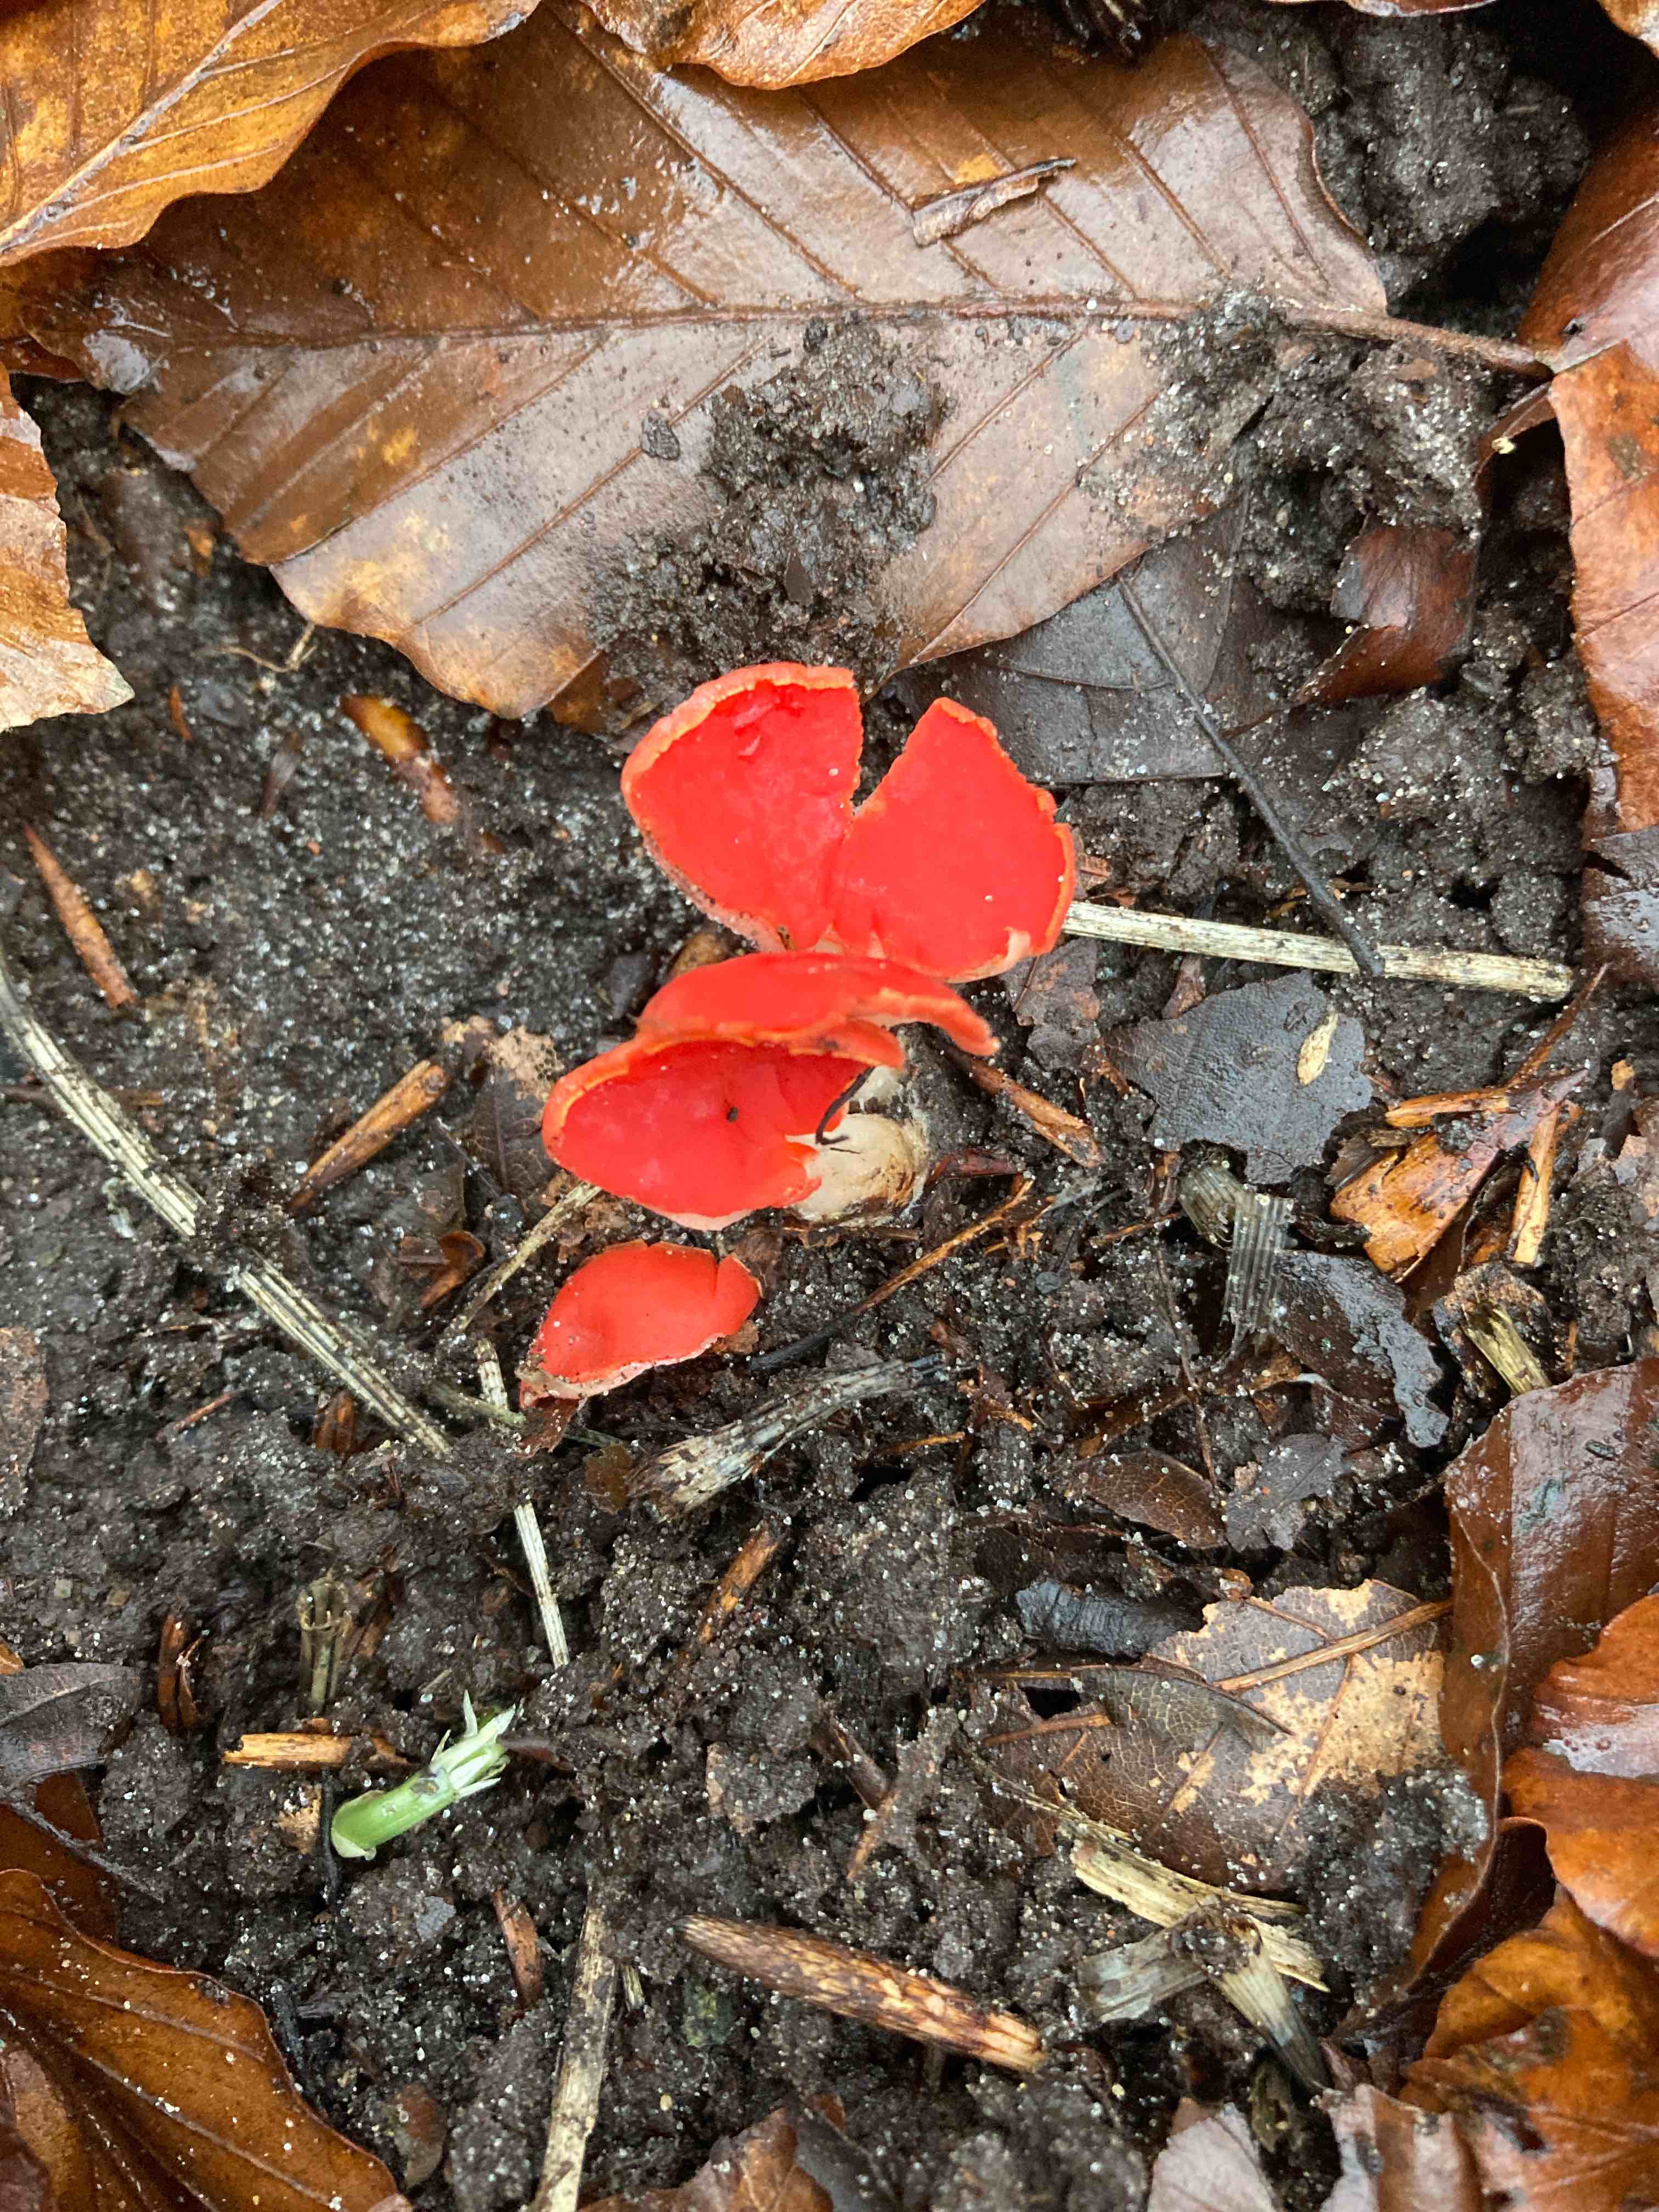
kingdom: Fungi
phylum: Ascomycota
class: Pezizomycetes
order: Pezizales
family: Sarcoscyphaceae
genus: Sarcoscypha
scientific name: Sarcoscypha austriaca
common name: krølhåret pragtbæger
